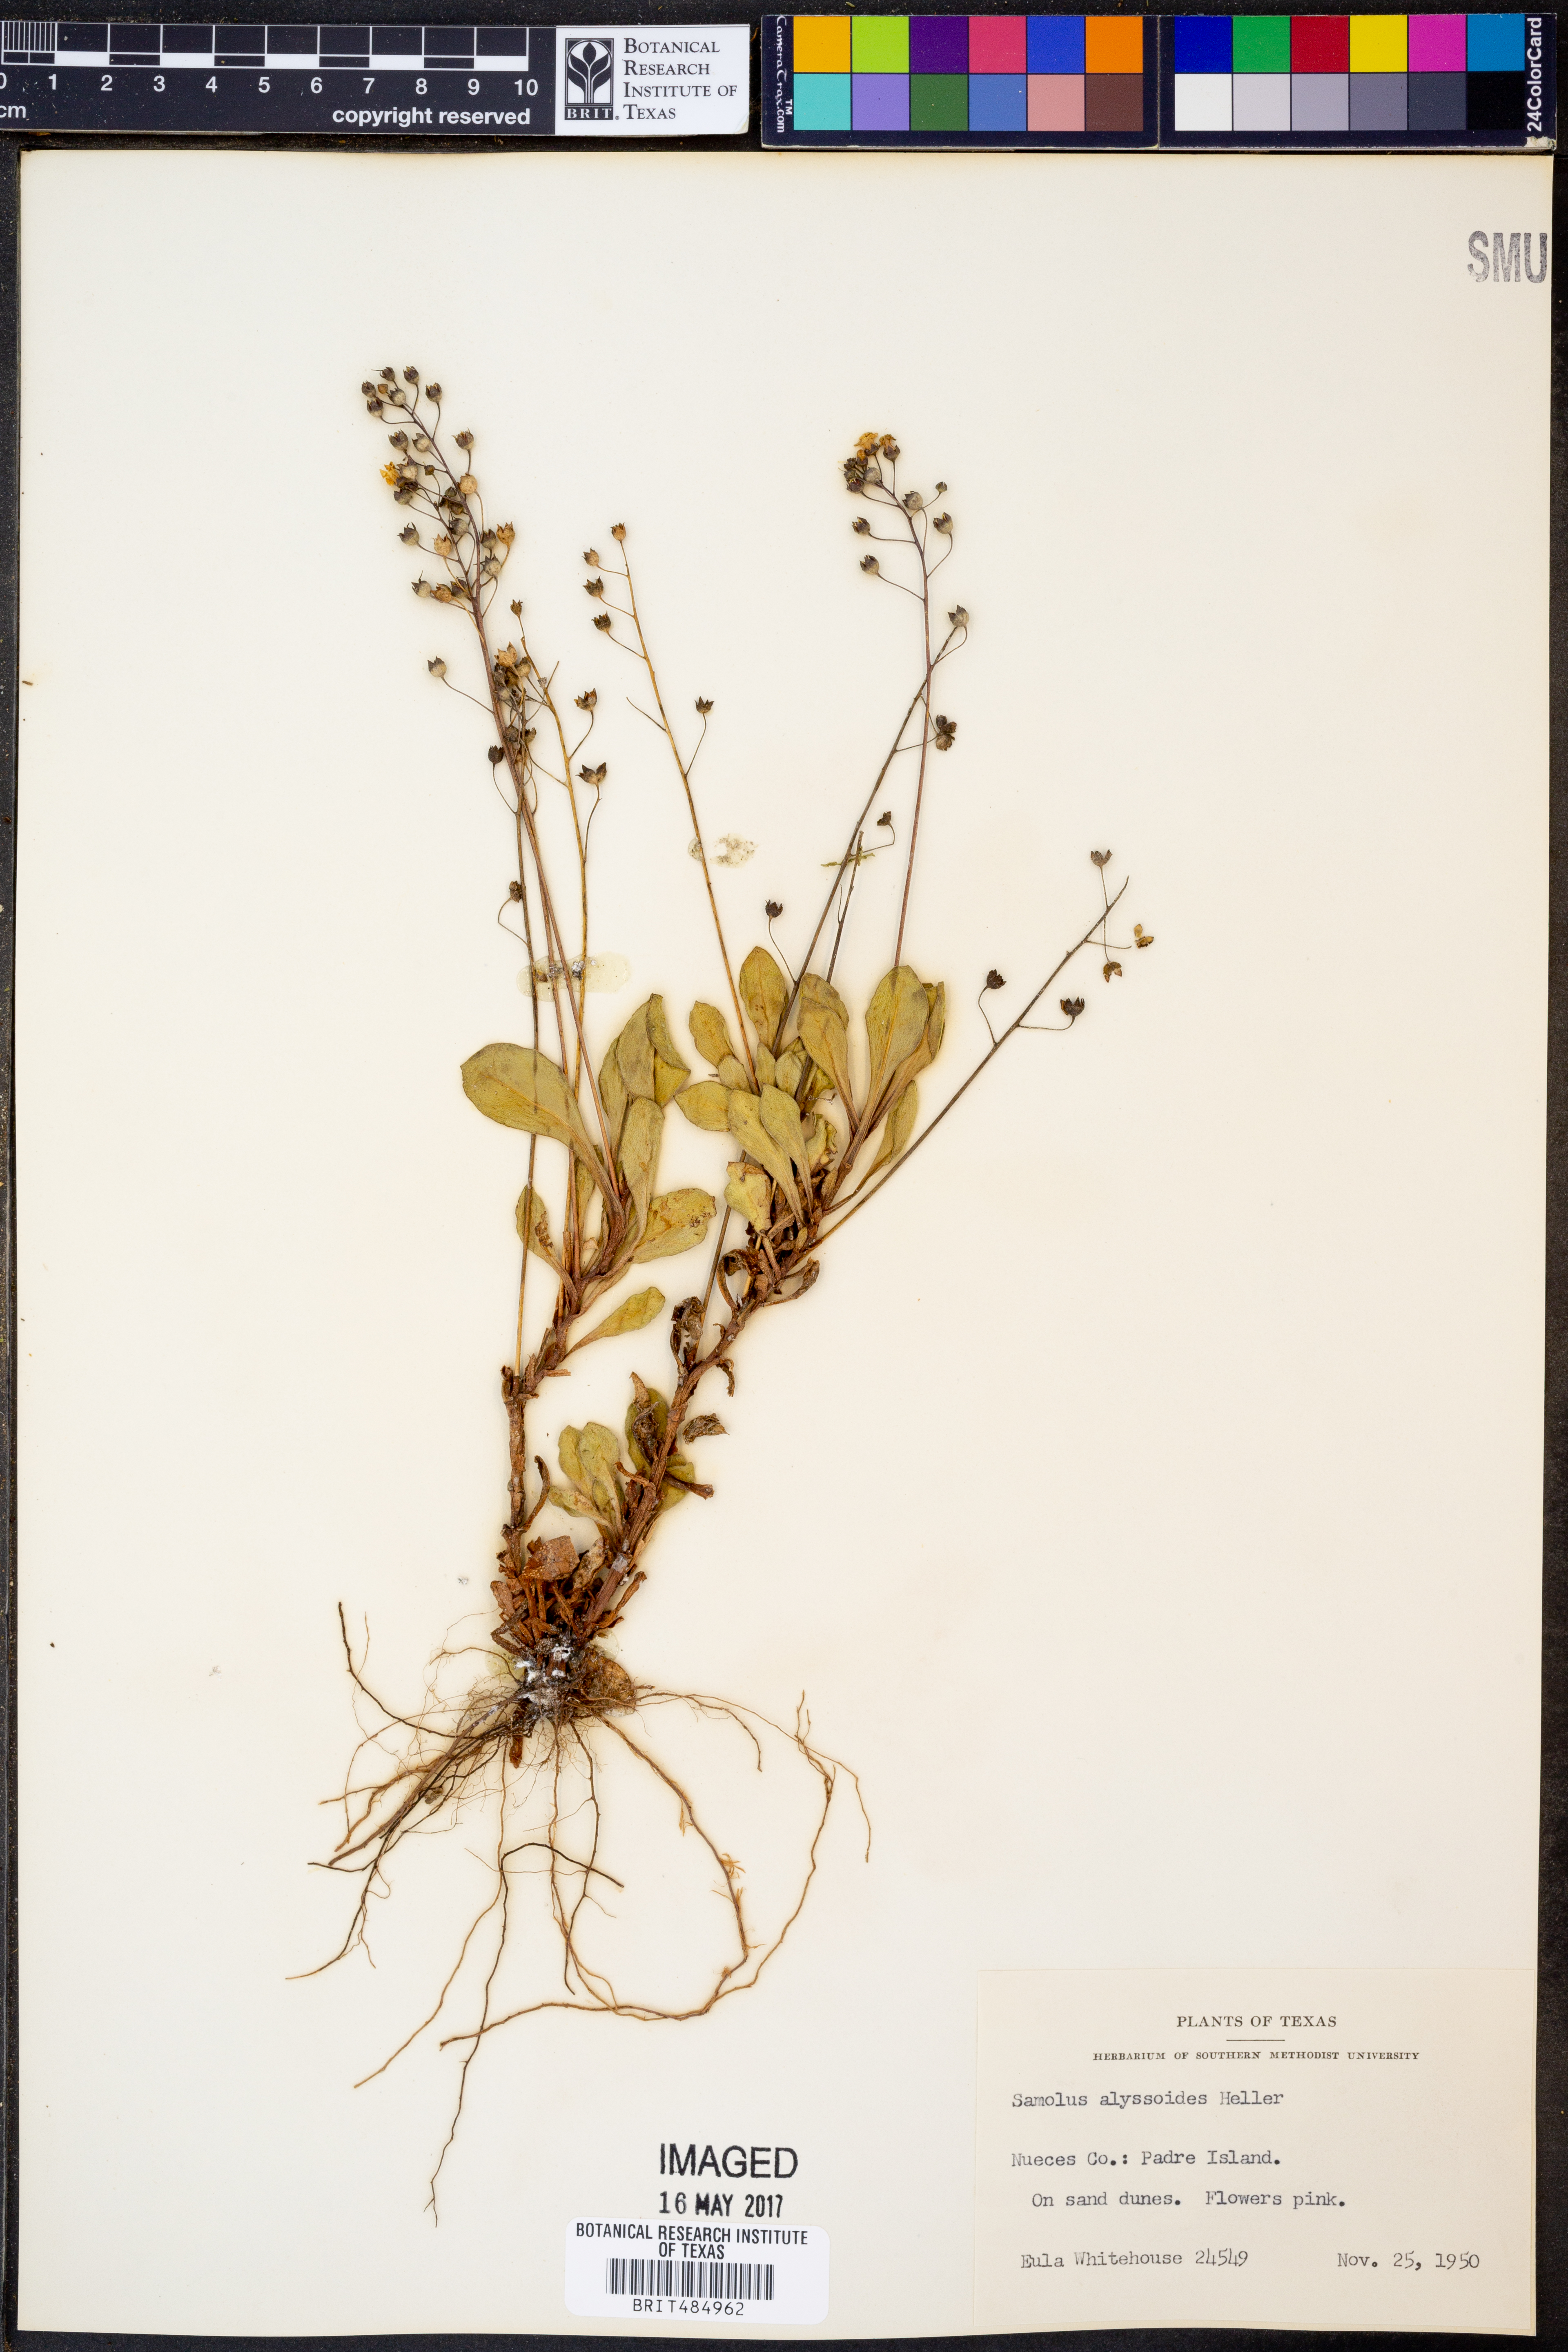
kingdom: Plantae
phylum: Tracheophyta
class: Magnoliopsida
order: Ericales
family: Primulaceae
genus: Samolus
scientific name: Samolus ebracteatus
